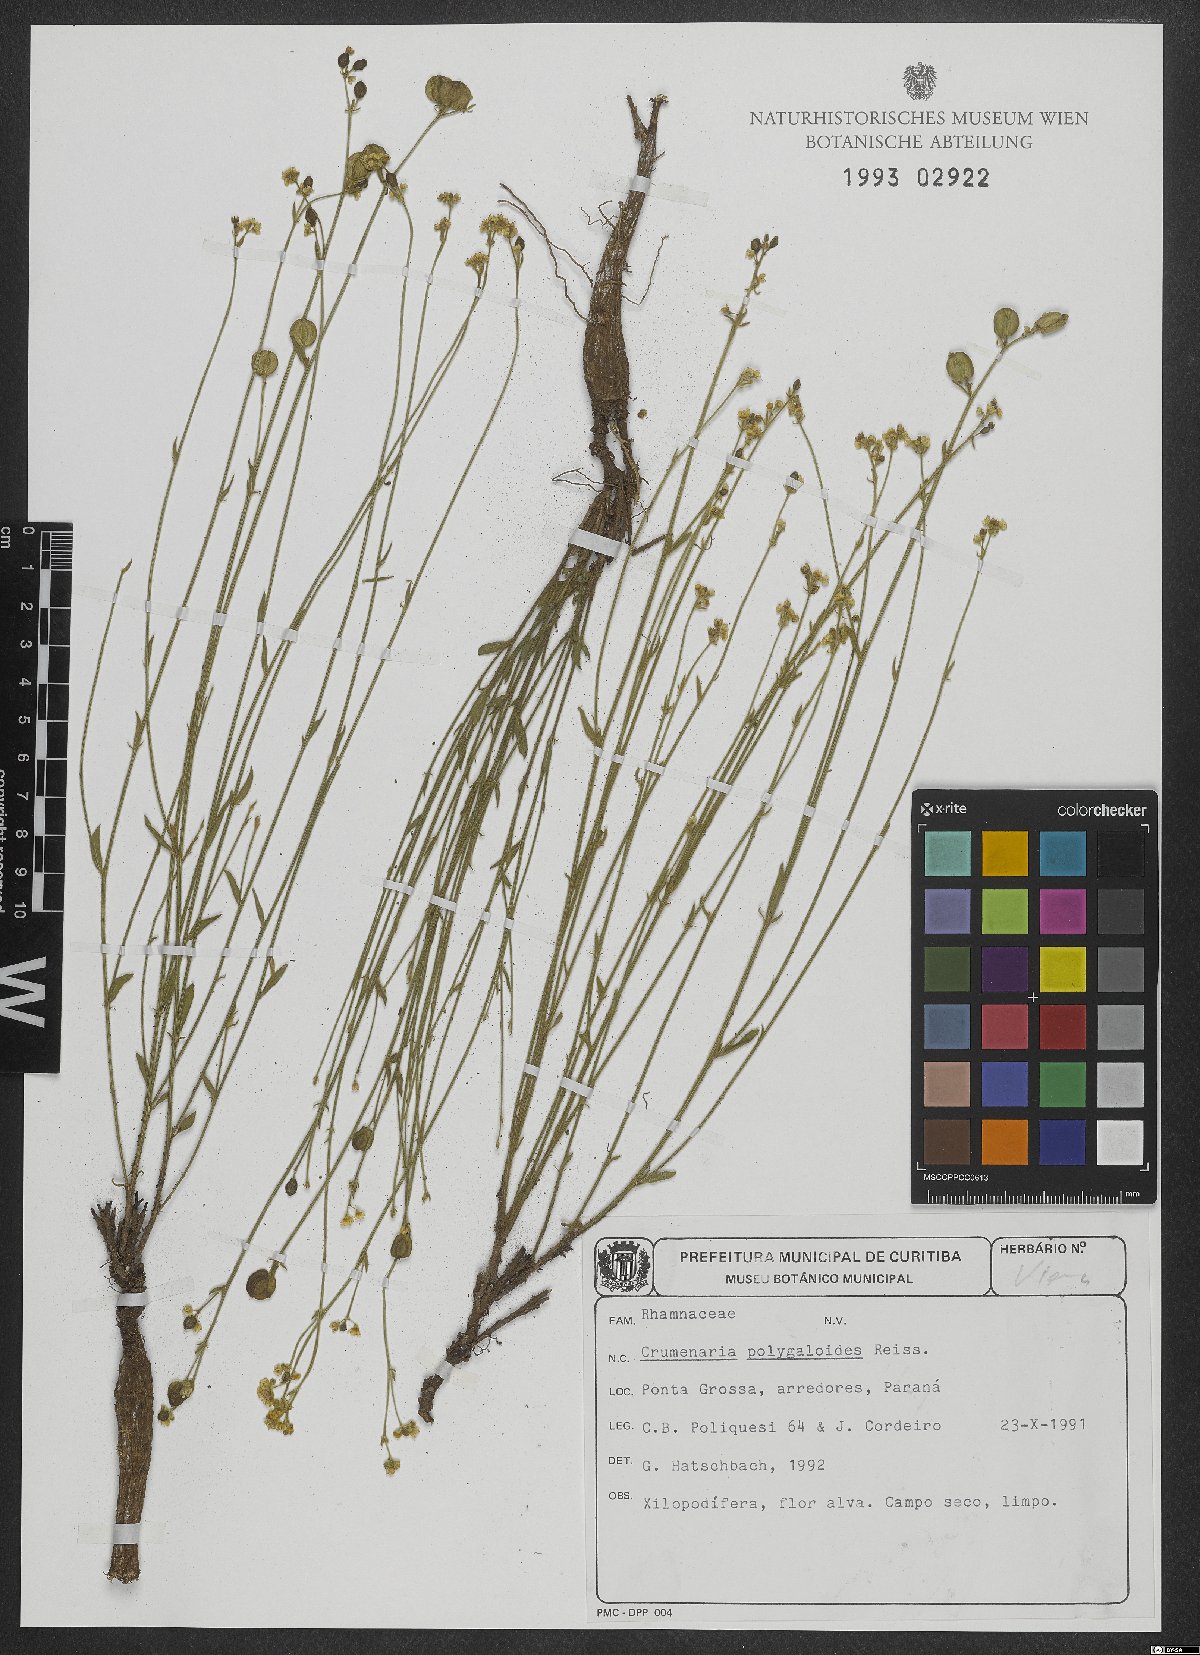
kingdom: Plantae
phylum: Tracheophyta
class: Magnoliopsida
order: Rosales
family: Rhamnaceae
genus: Crumenaria
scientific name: Crumenaria choretroides
